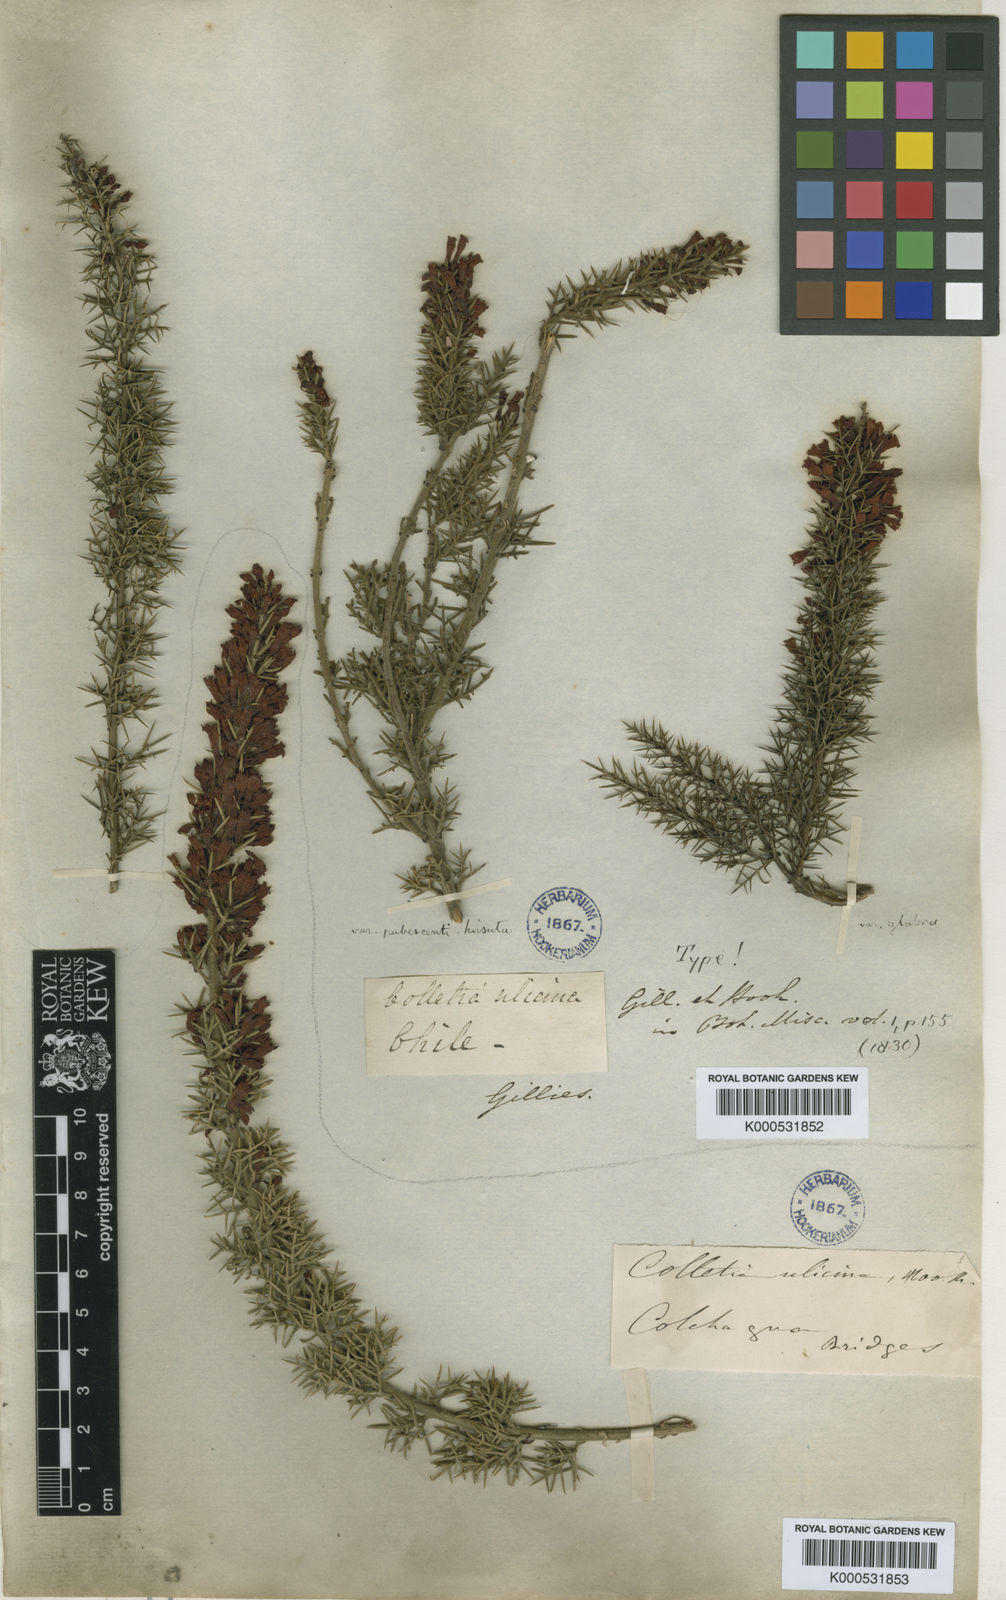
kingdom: Plantae
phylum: Tracheophyta
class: Magnoliopsida
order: Rosales
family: Rhamnaceae
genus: Colletia
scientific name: Colletia ulicina
